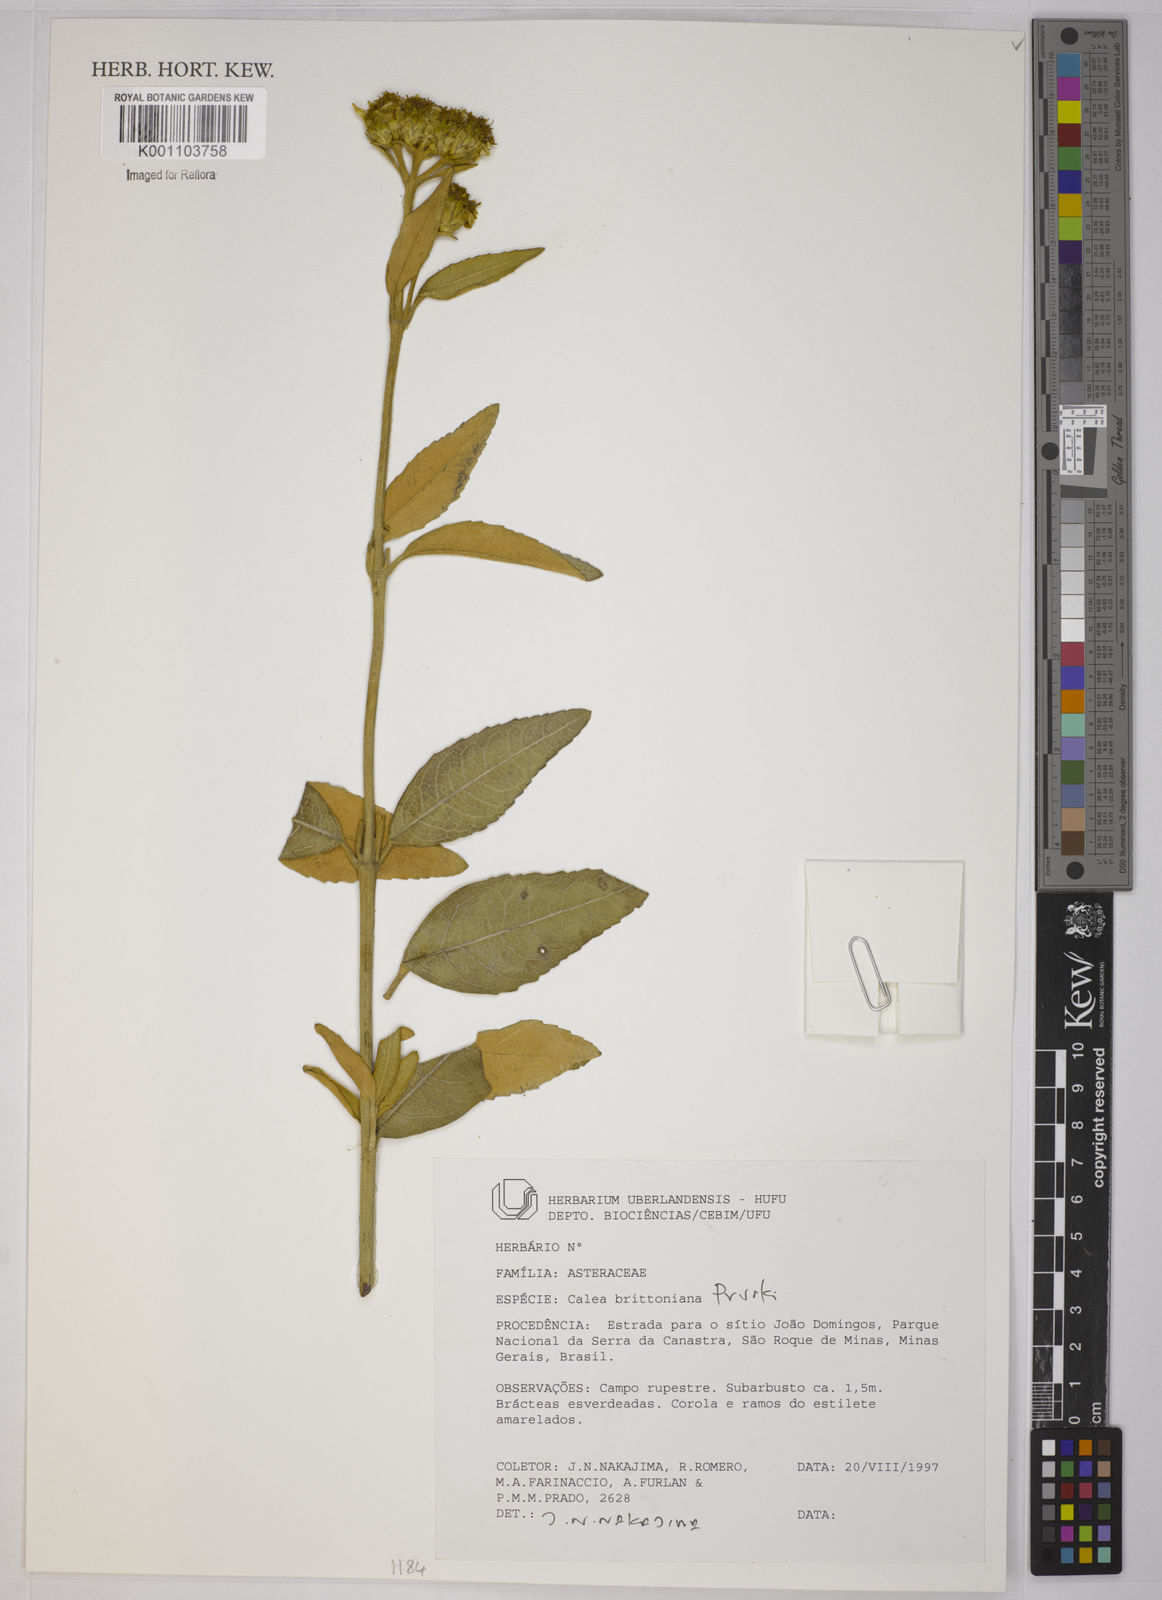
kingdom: Plantae
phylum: Tracheophyta
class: Magnoliopsida
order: Asterales
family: Asteraceae
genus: Calea
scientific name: Calea brittoniana
